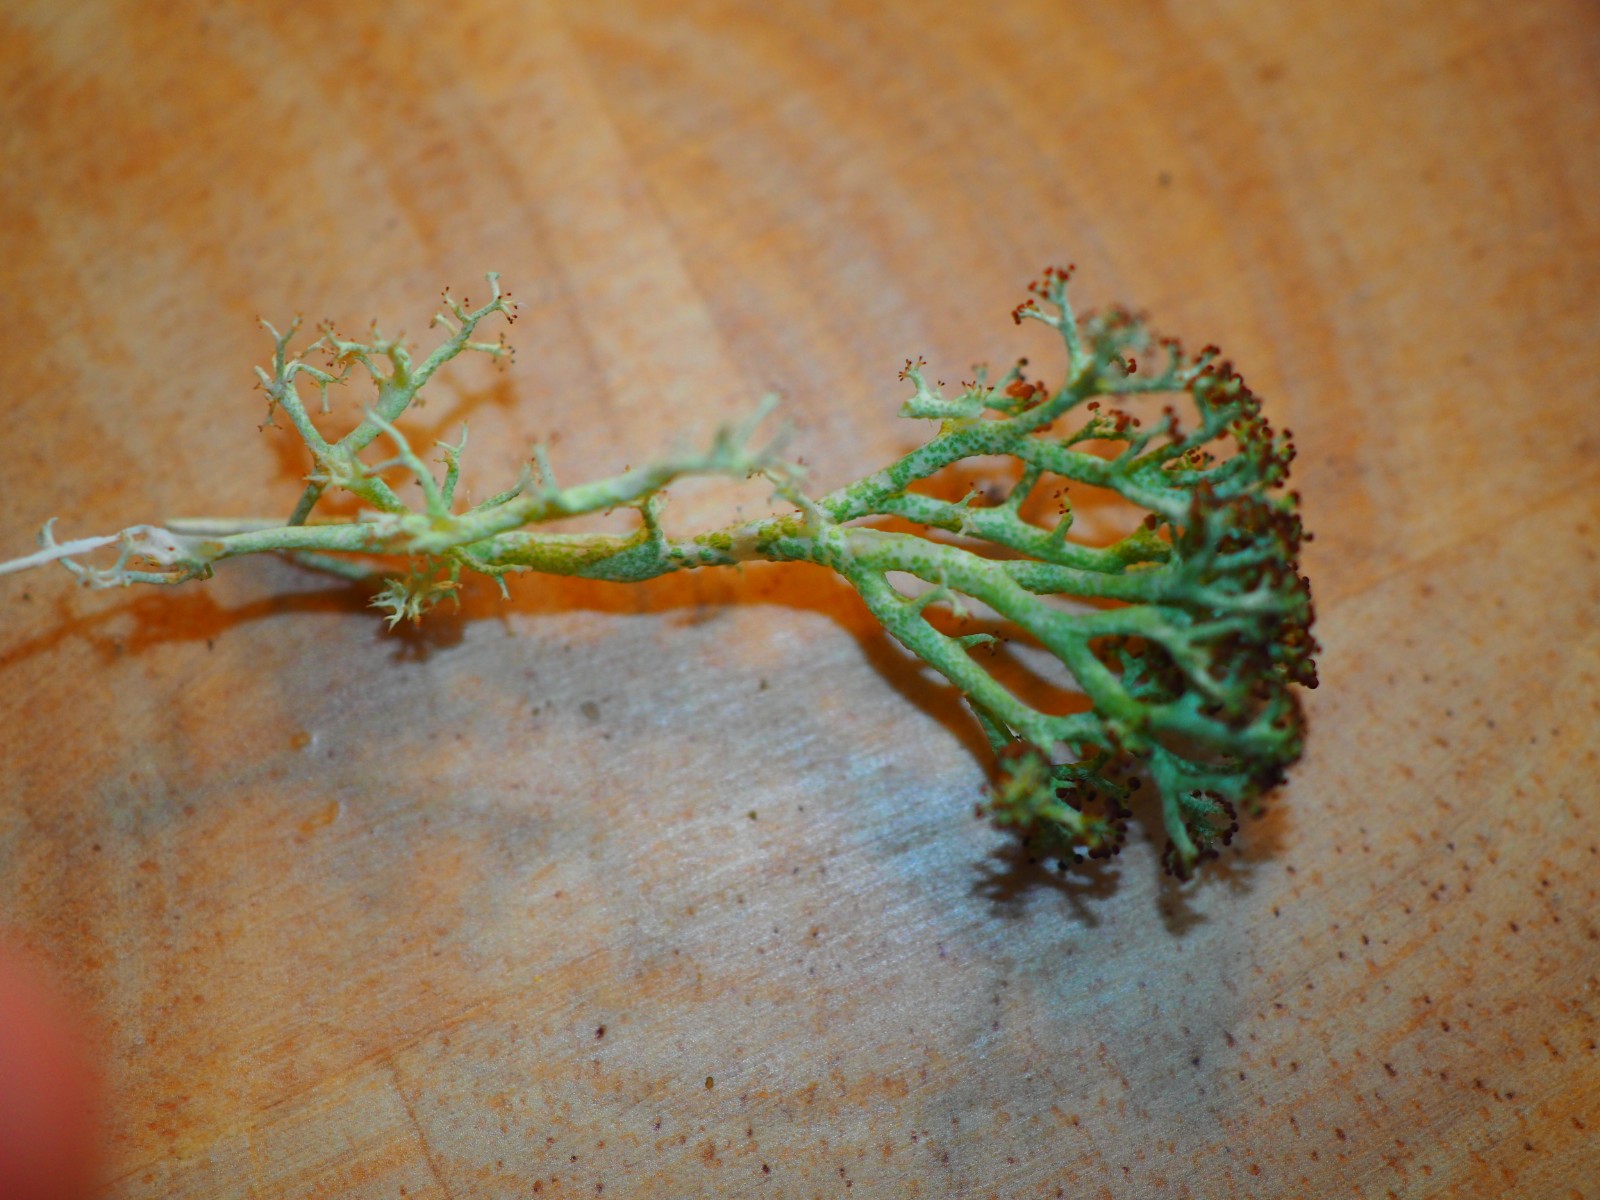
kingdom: Fungi
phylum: Ascomycota
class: Lecanoromycetes
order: Lecanorales
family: Cladoniaceae
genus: Cladonia
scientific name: Cladonia
